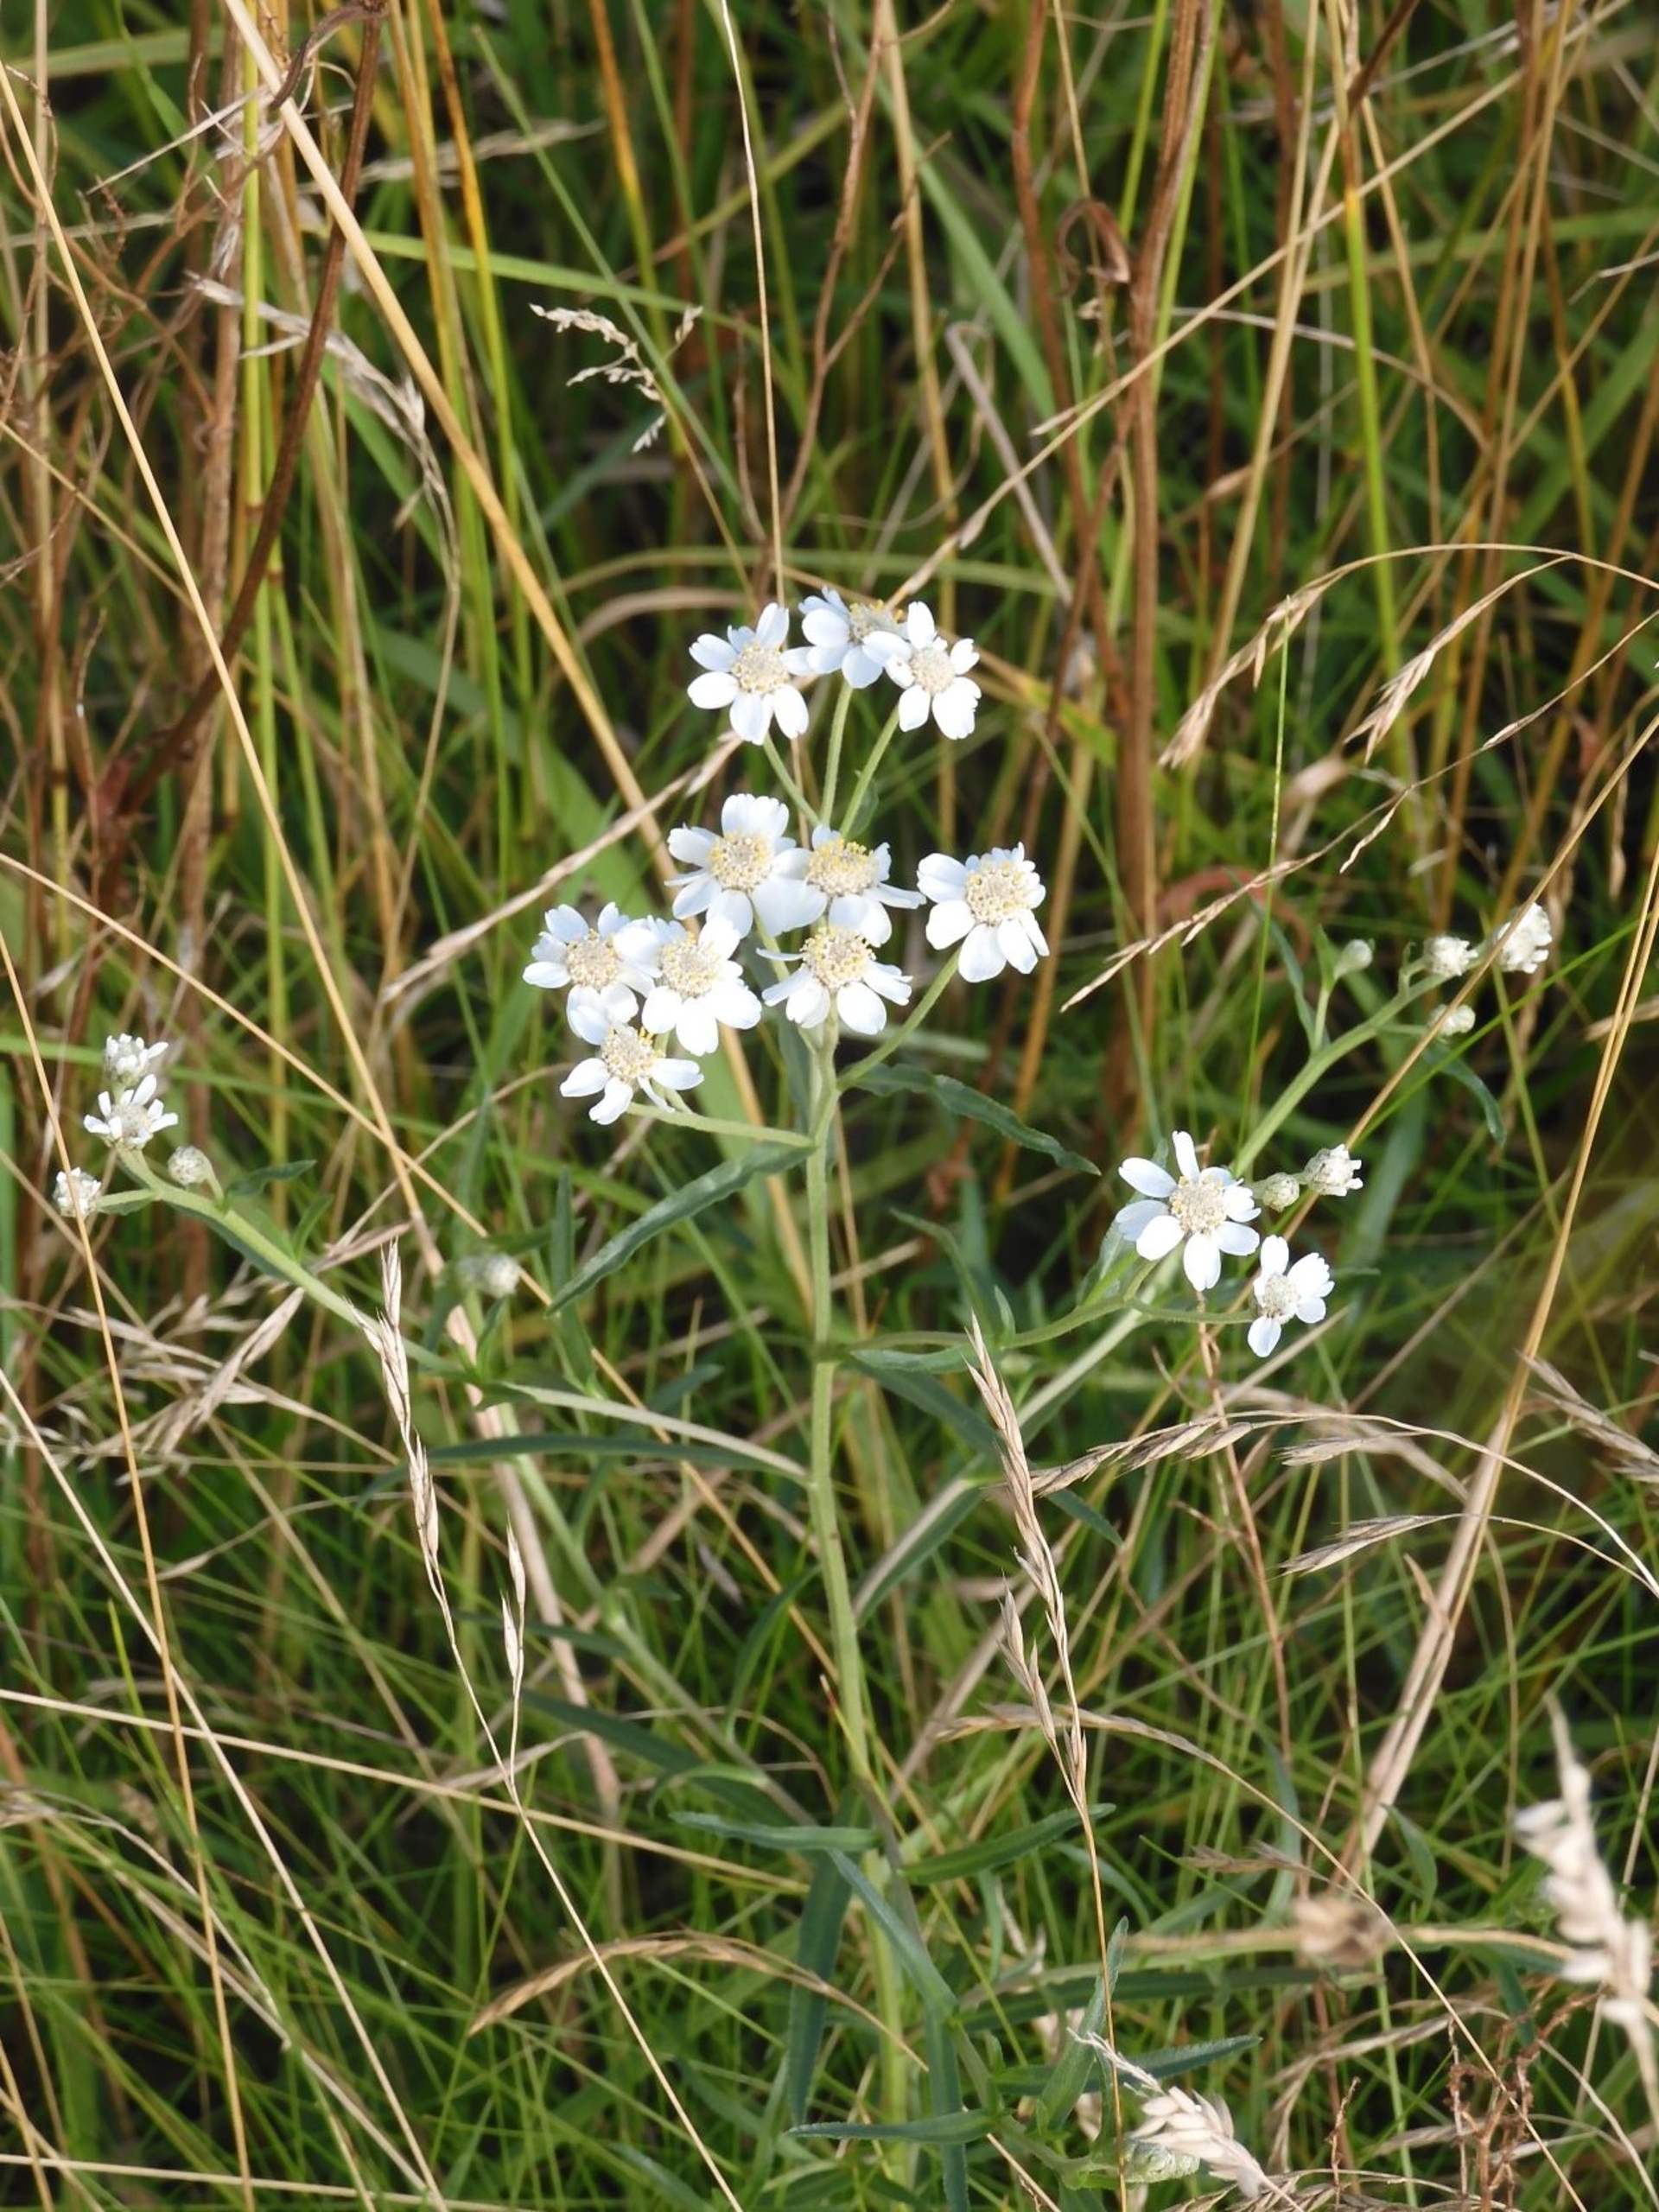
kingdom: Plantae
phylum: Tracheophyta
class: Magnoliopsida
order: Asterales
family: Asteraceae
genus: Achillea
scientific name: Achillea ptarmica
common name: Nyse-røllike
